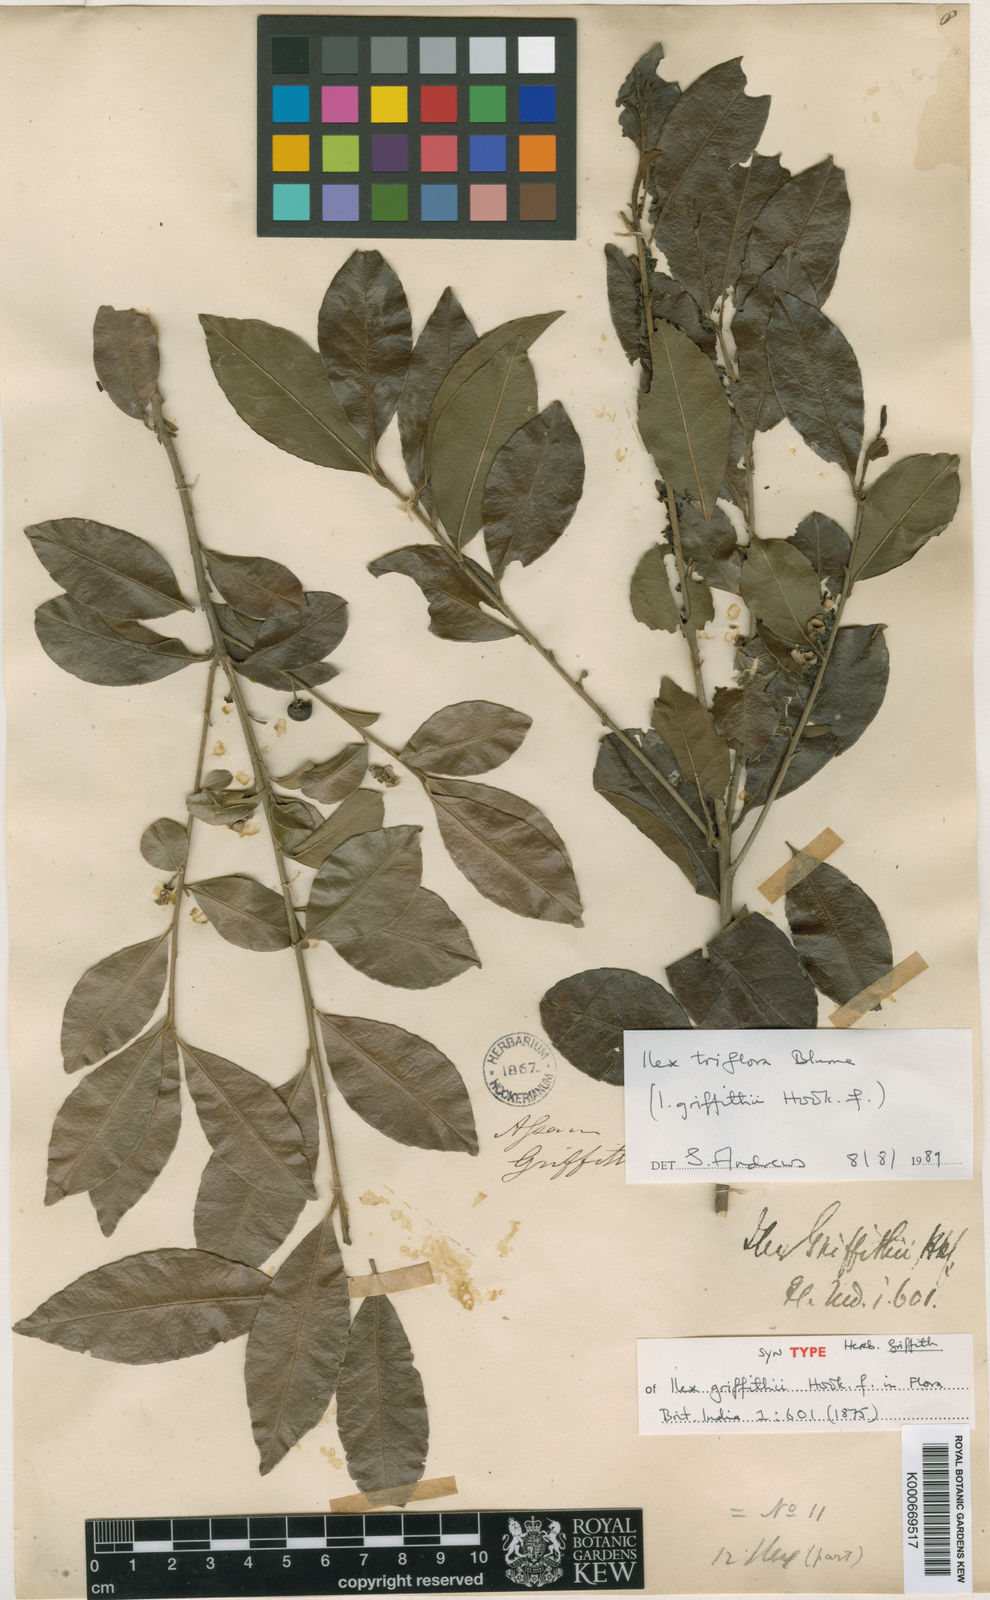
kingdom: Plantae
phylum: Tracheophyta
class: Magnoliopsida
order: Aquifoliales
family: Aquifoliaceae
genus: Ilex
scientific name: Ilex triflora
